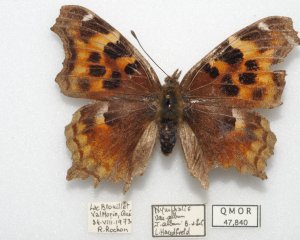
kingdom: Animalia
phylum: Arthropoda
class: Insecta
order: Lepidoptera
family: Nymphalidae
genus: Polygonia
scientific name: Polygonia vaualbum
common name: Compton Tortoiseshell
